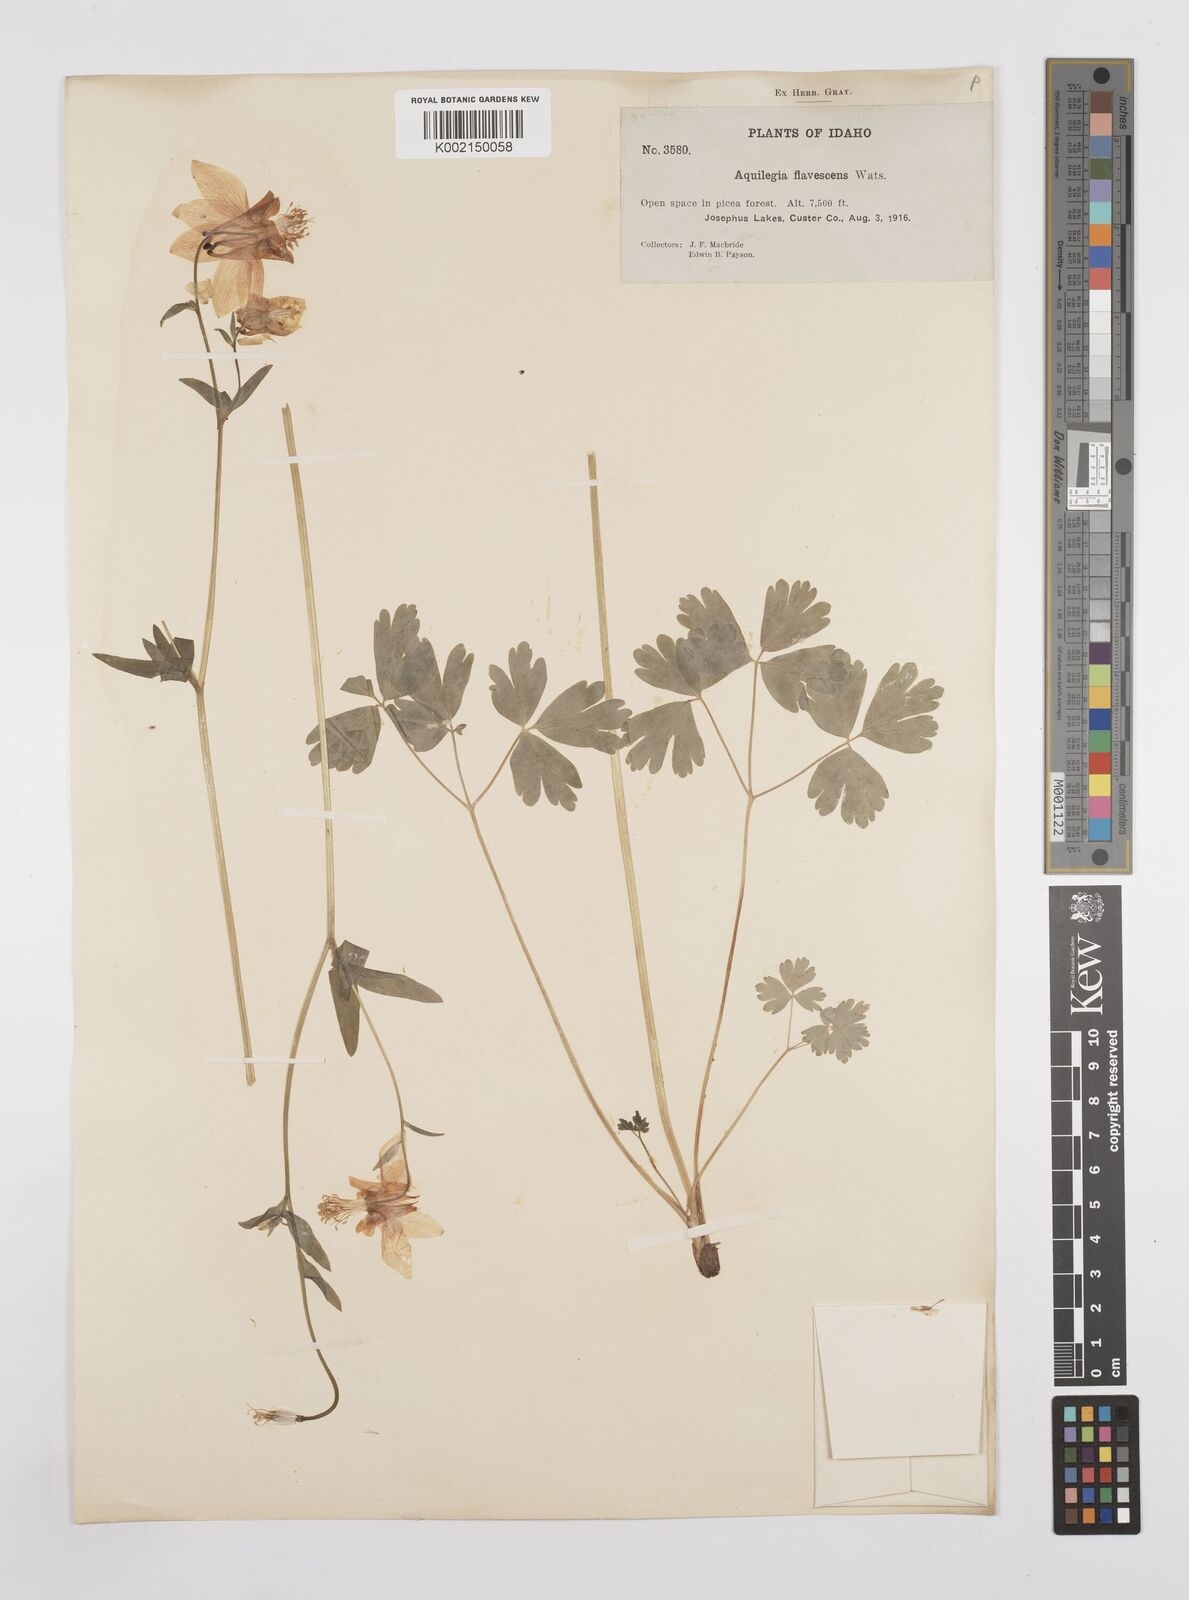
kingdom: Plantae
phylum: Tracheophyta
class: Magnoliopsida
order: Ranunculales
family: Ranunculaceae
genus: Aquilegia
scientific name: Aquilegia flavescens
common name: Yellow columbine
